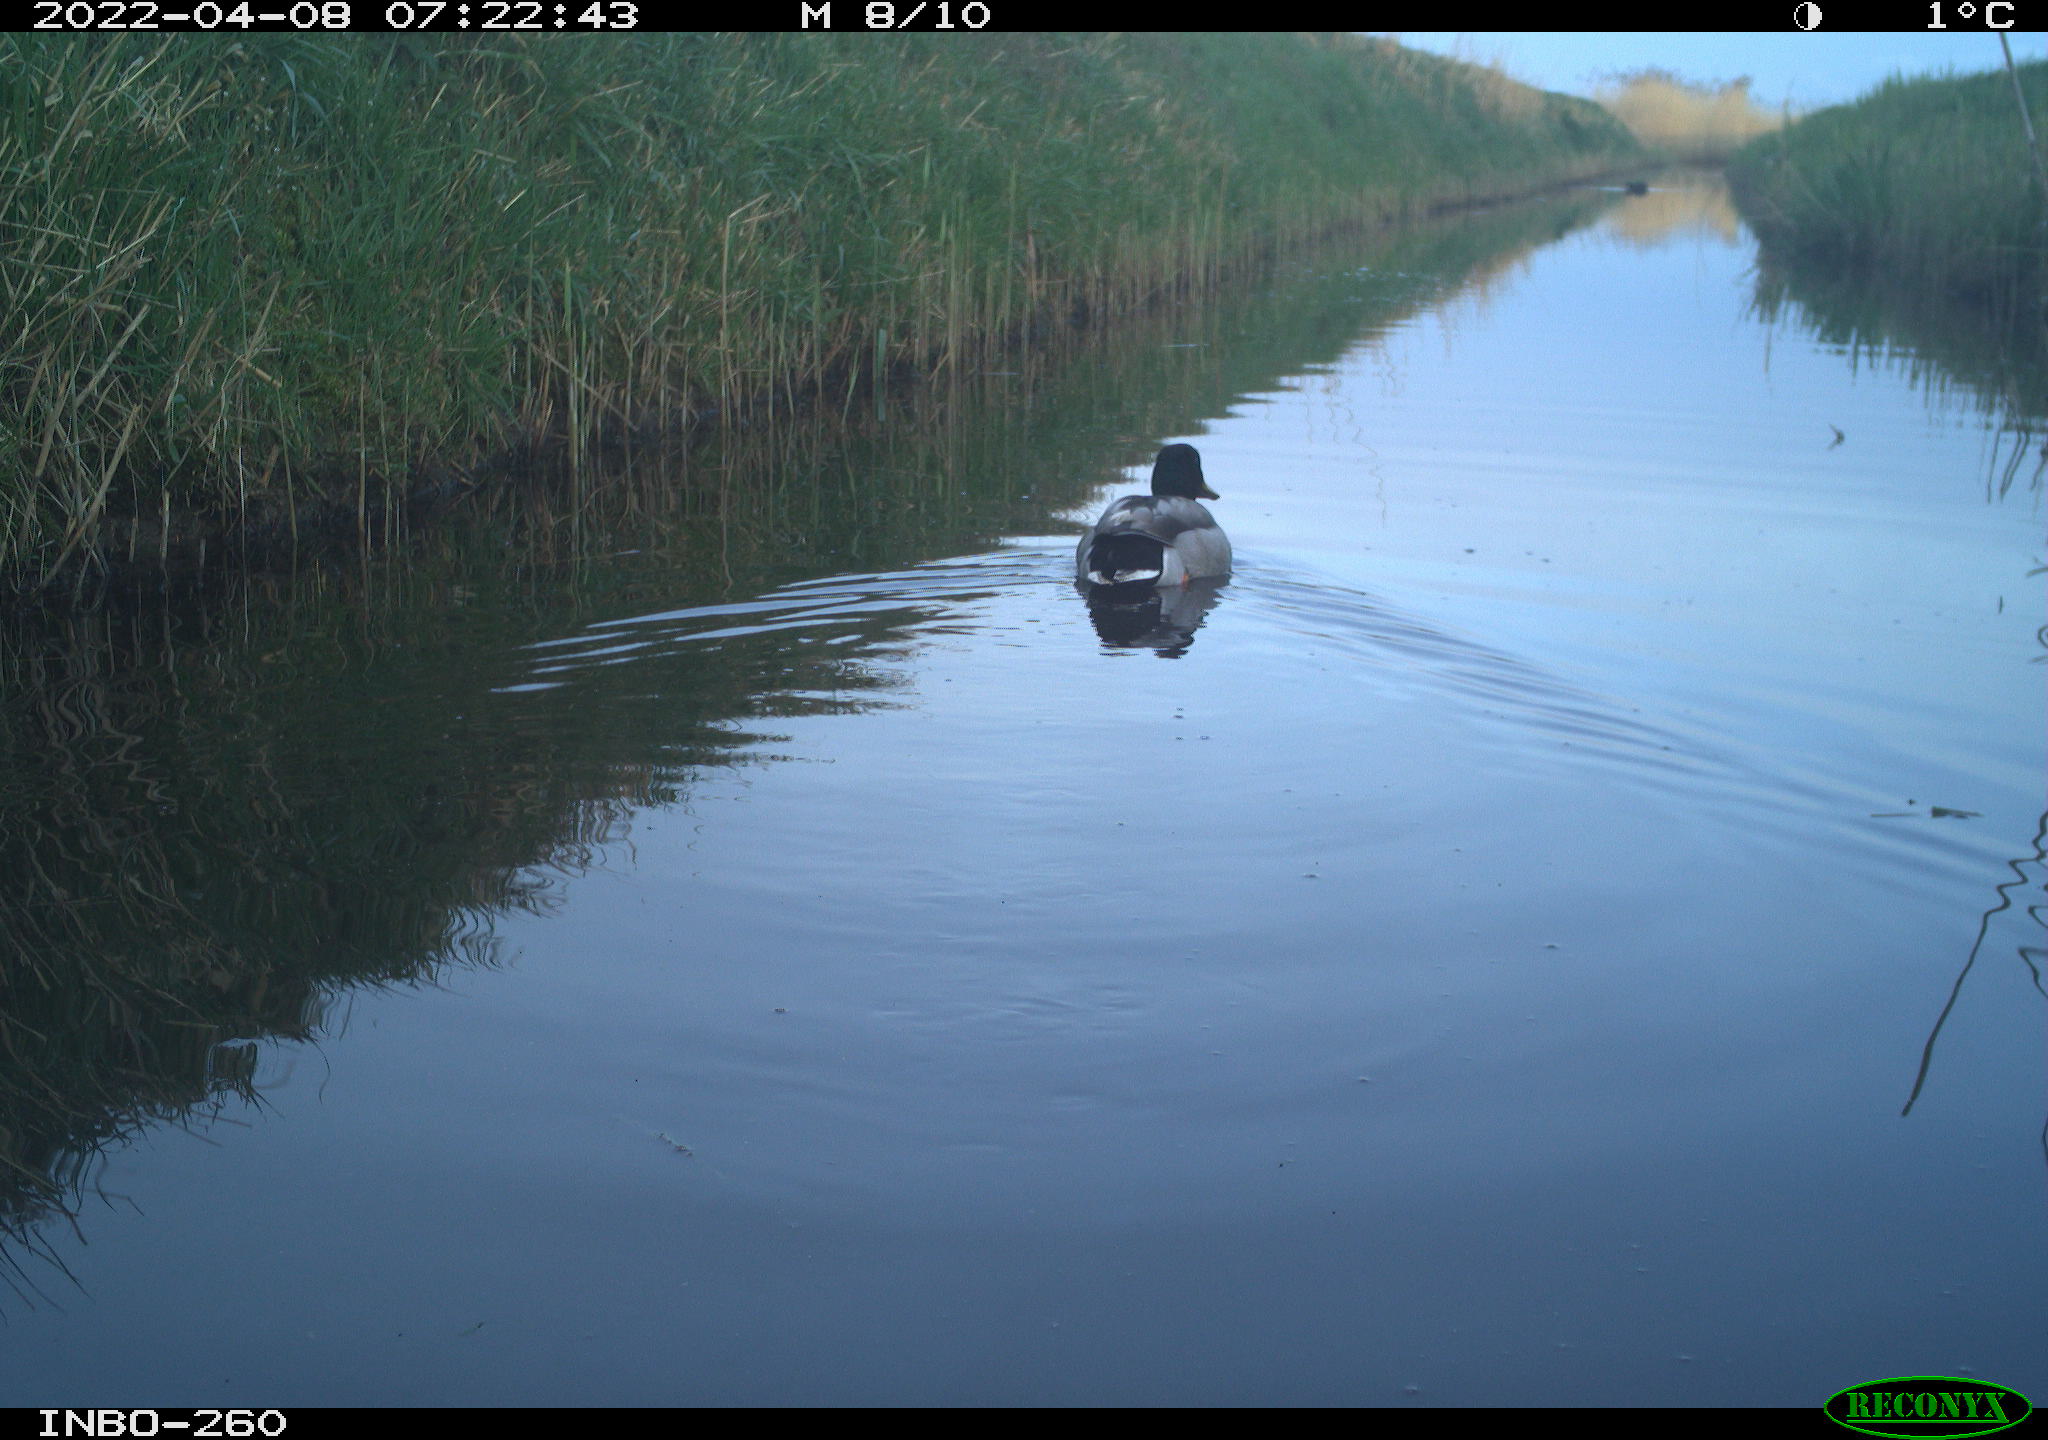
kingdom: Animalia
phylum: Chordata
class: Aves
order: Anseriformes
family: Anatidae
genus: Anas
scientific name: Anas platyrhynchos
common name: Mallard
